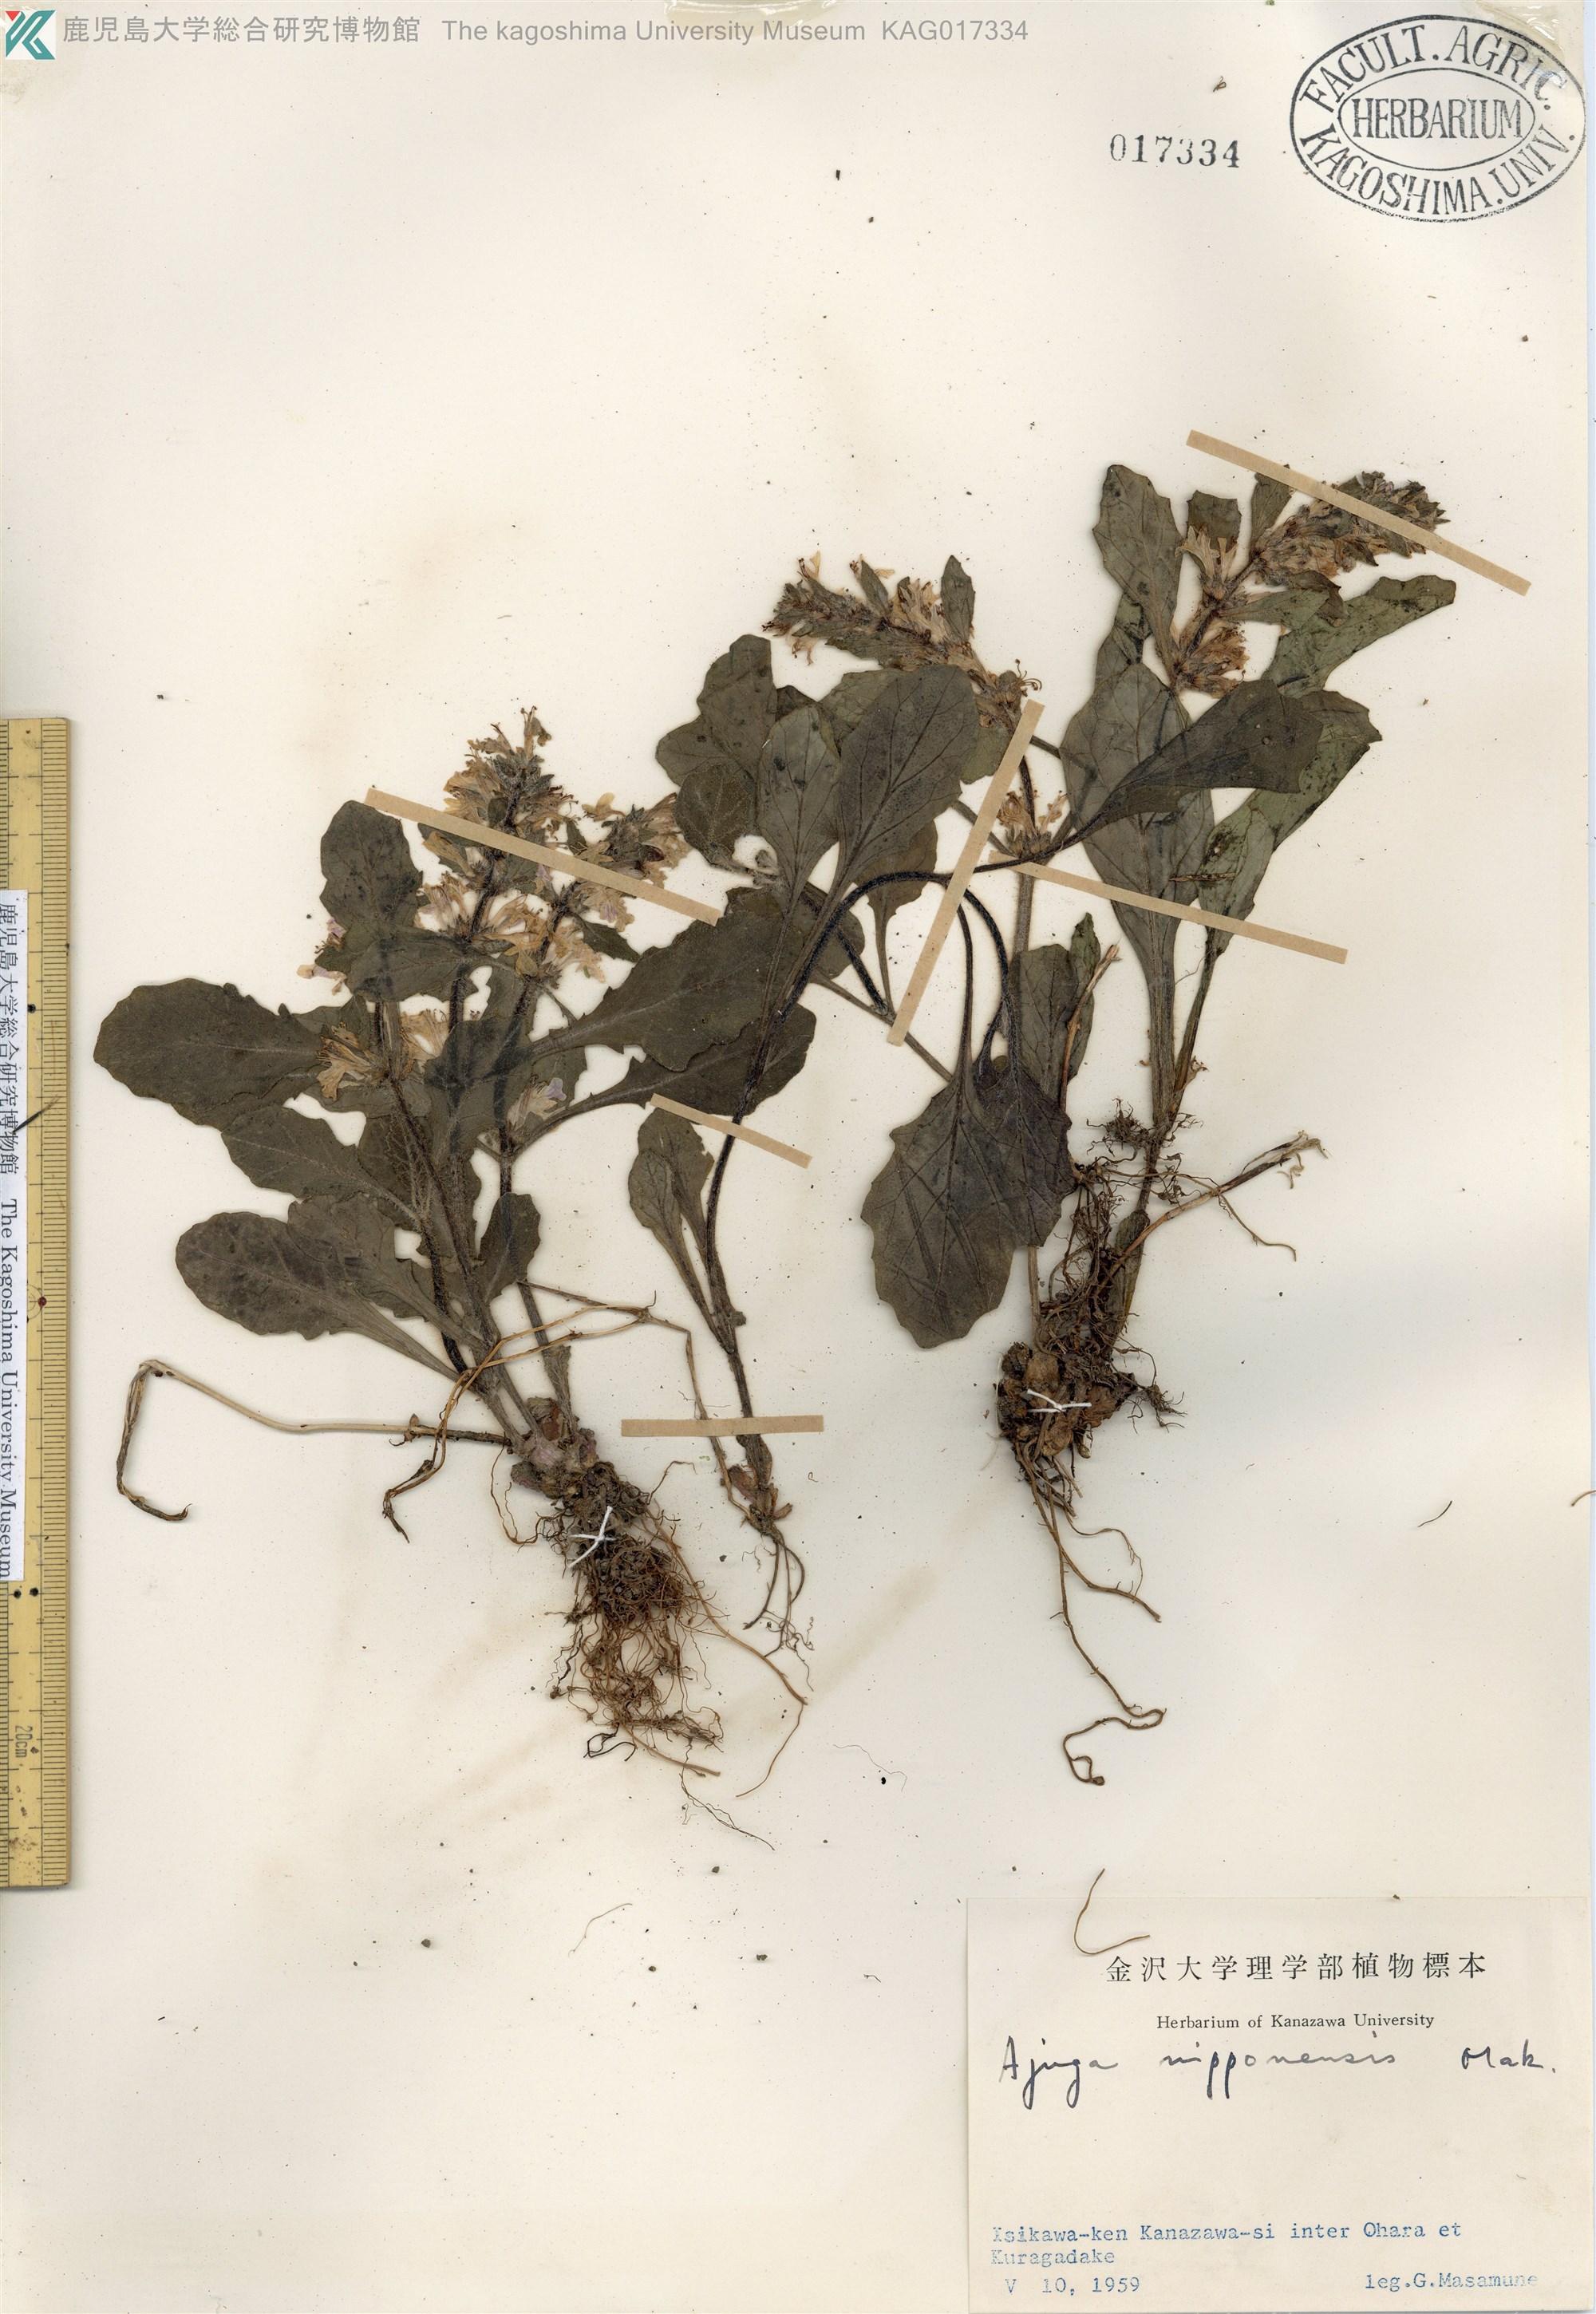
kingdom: Plantae
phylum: Tracheophyta
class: Magnoliopsida
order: Lamiales
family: Lamiaceae
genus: Ajuga
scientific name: Ajuga nipponensis
